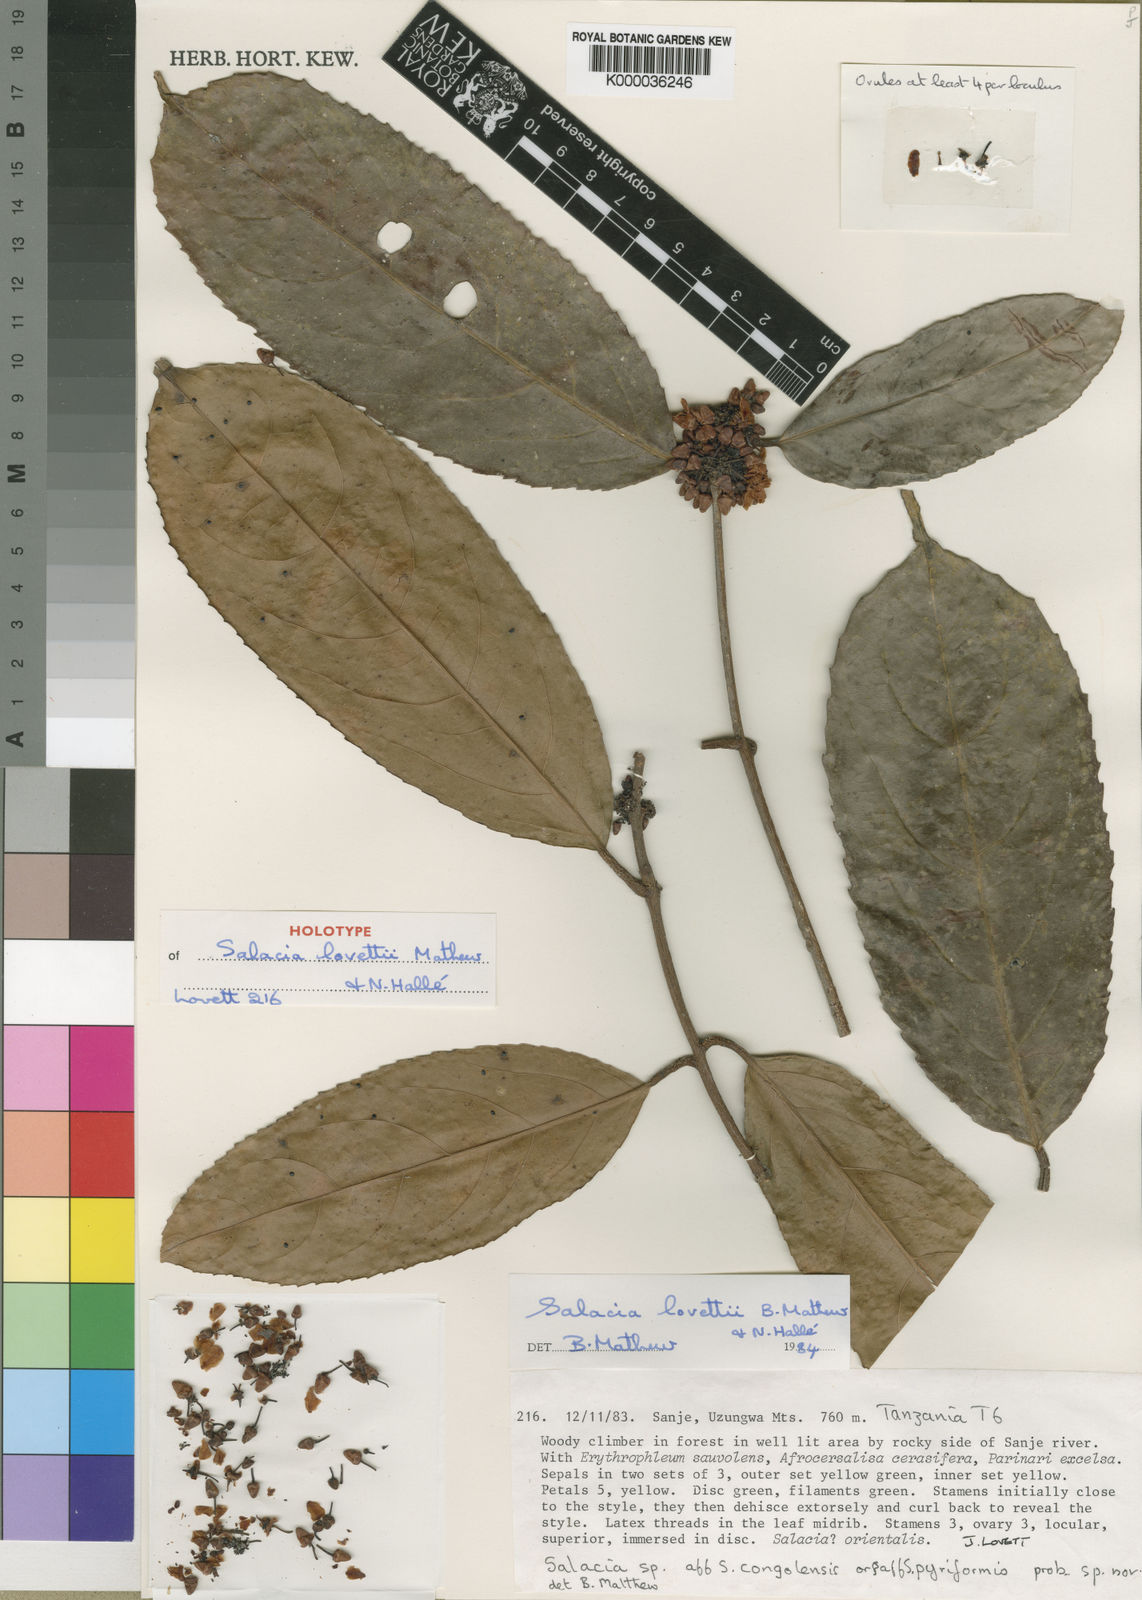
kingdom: Plantae
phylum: Tracheophyta
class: Magnoliopsida
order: Celastrales
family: Celastraceae
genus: Salacia
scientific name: Salacia
